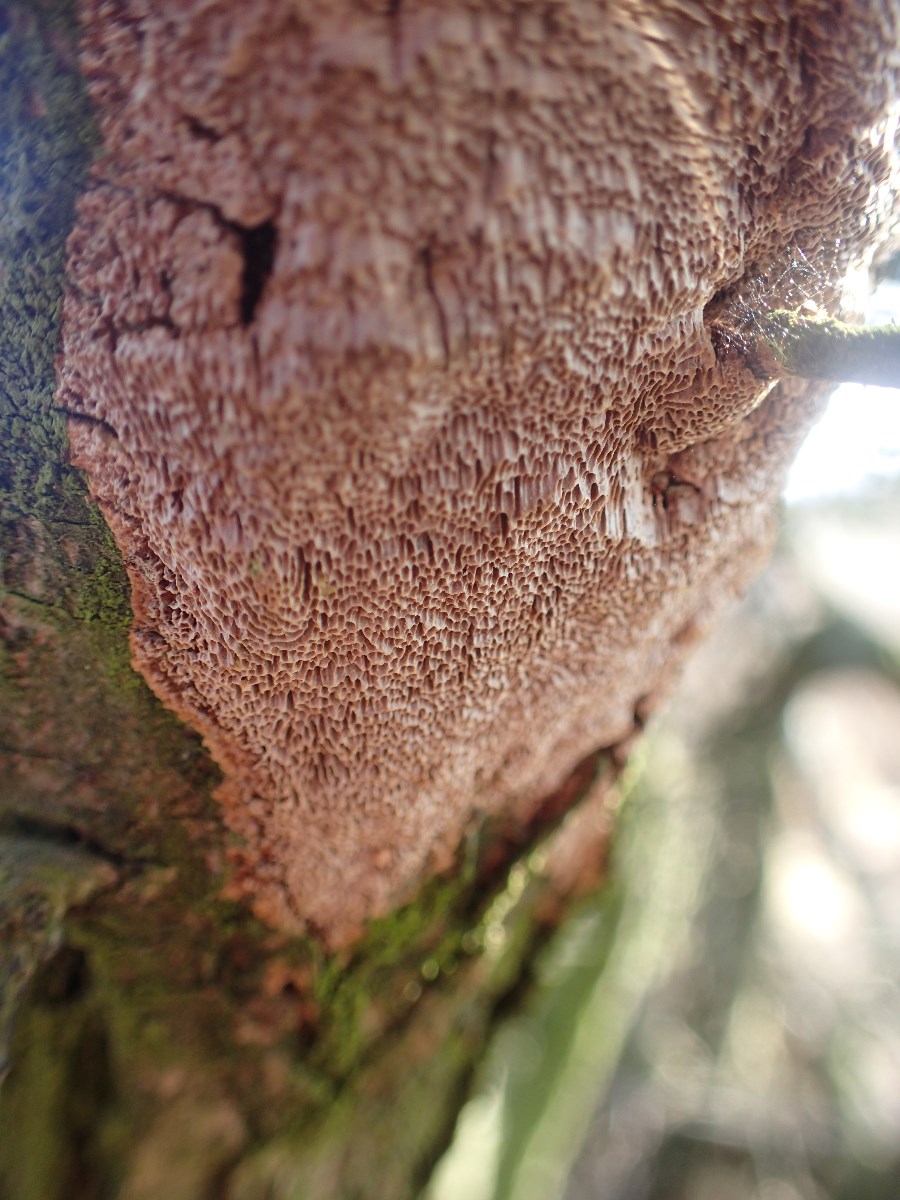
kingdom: Fungi
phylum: Basidiomycota
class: Agaricomycetes
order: Hymenochaetales
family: Hymenochaetaceae
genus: Fuscoporia
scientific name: Fuscoporia contigua
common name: grov ildporesvamp
